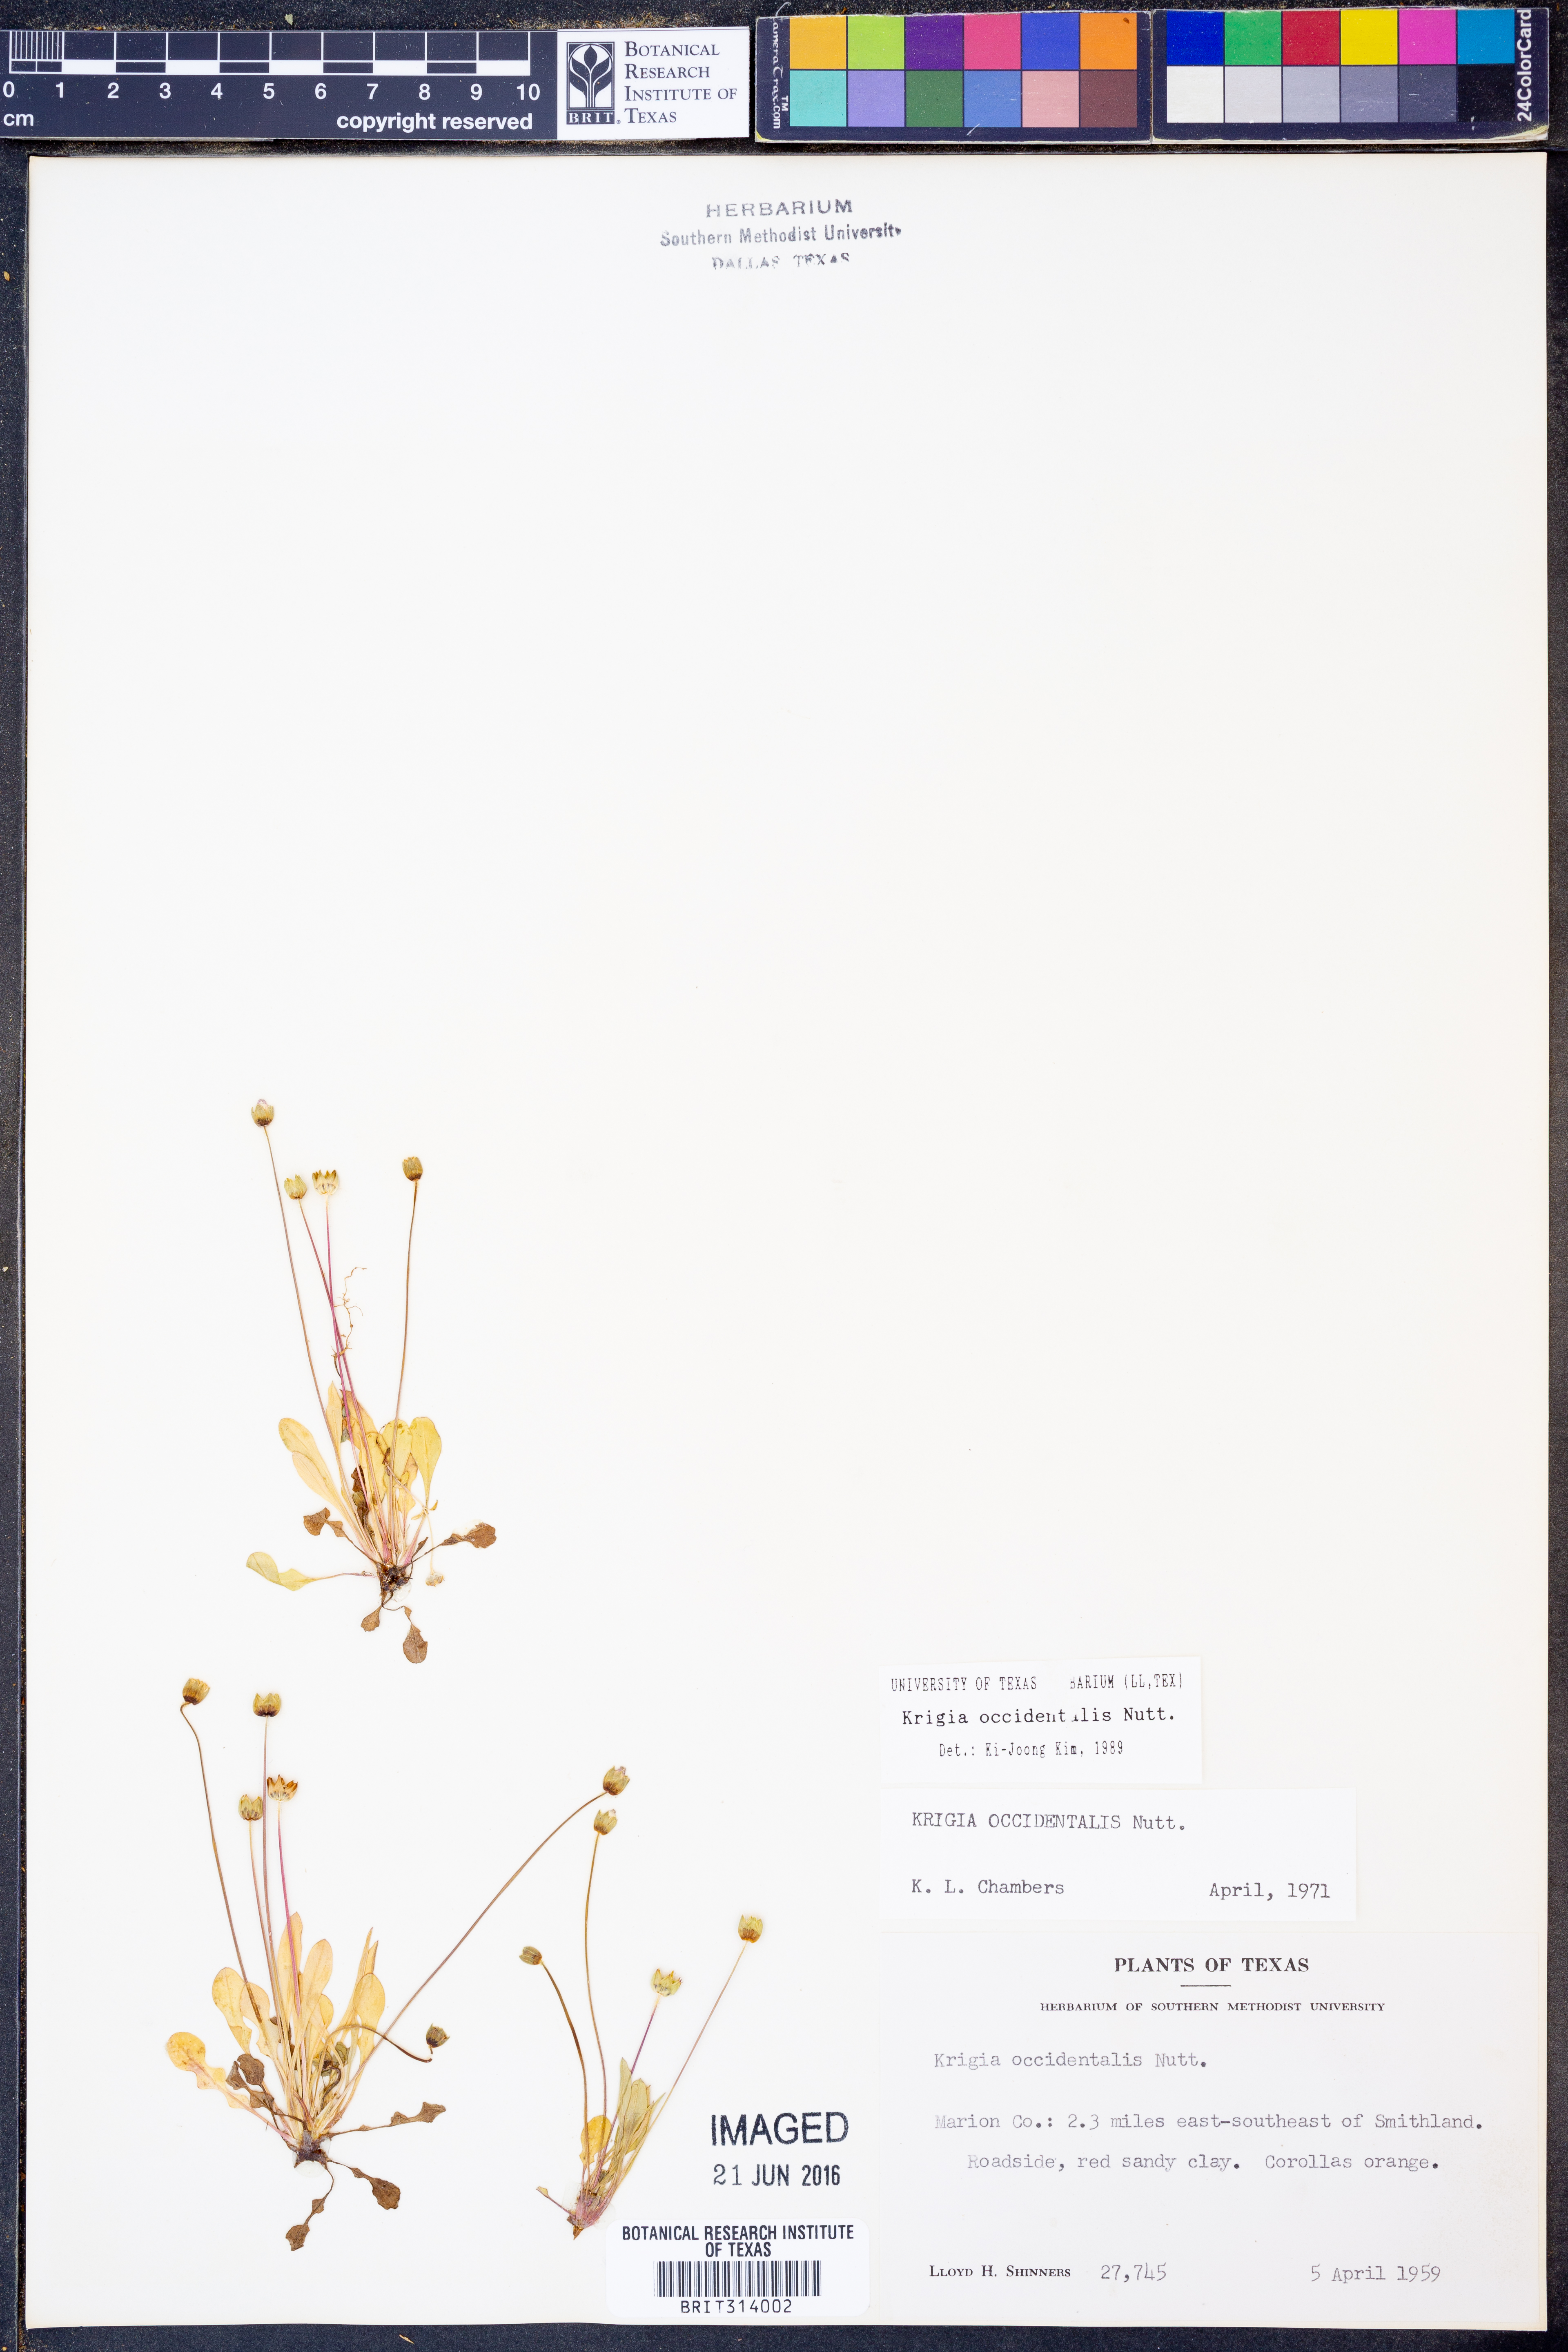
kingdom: Plantae
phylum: Tracheophyta
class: Magnoliopsida
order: Asterales
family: Asteraceae
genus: Krigia
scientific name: Krigia occidentalis
